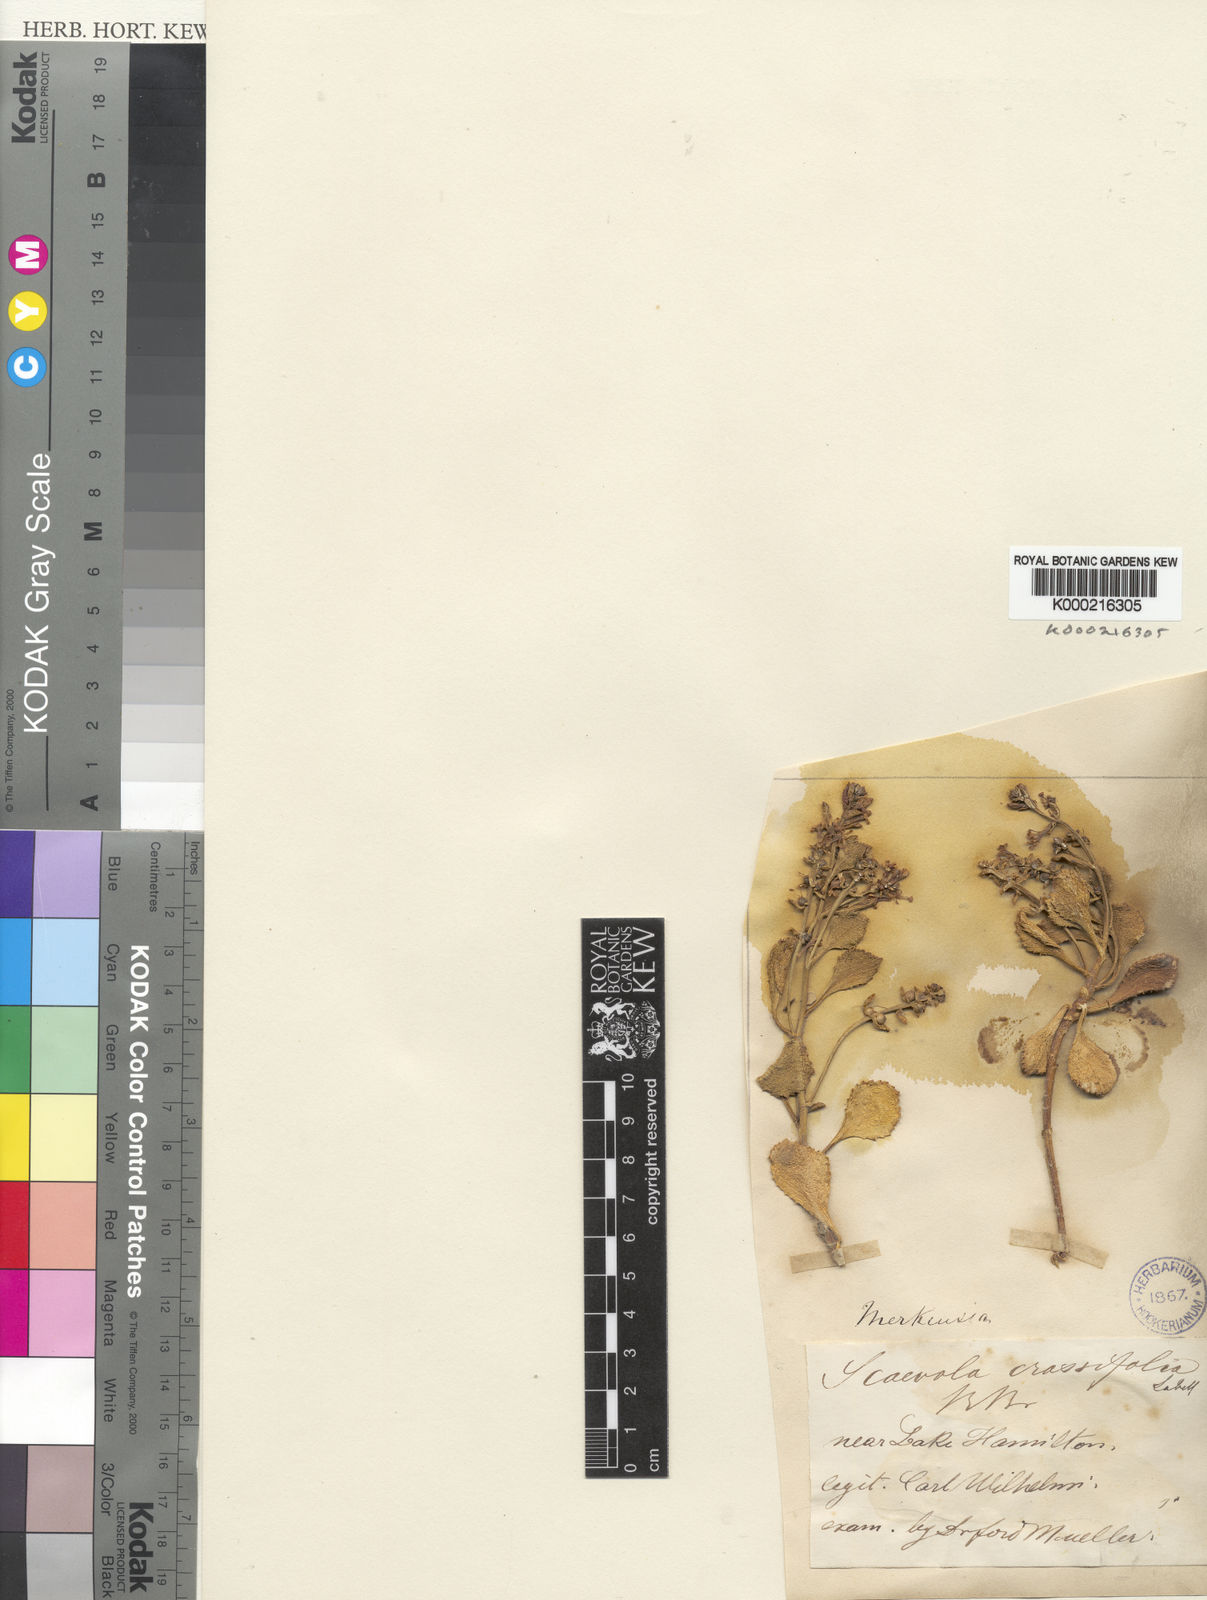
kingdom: Plantae
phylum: Tracheophyta
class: Magnoliopsida
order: Asterales
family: Goodeniaceae
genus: Scaevola
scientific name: Scaevola crassifolia
